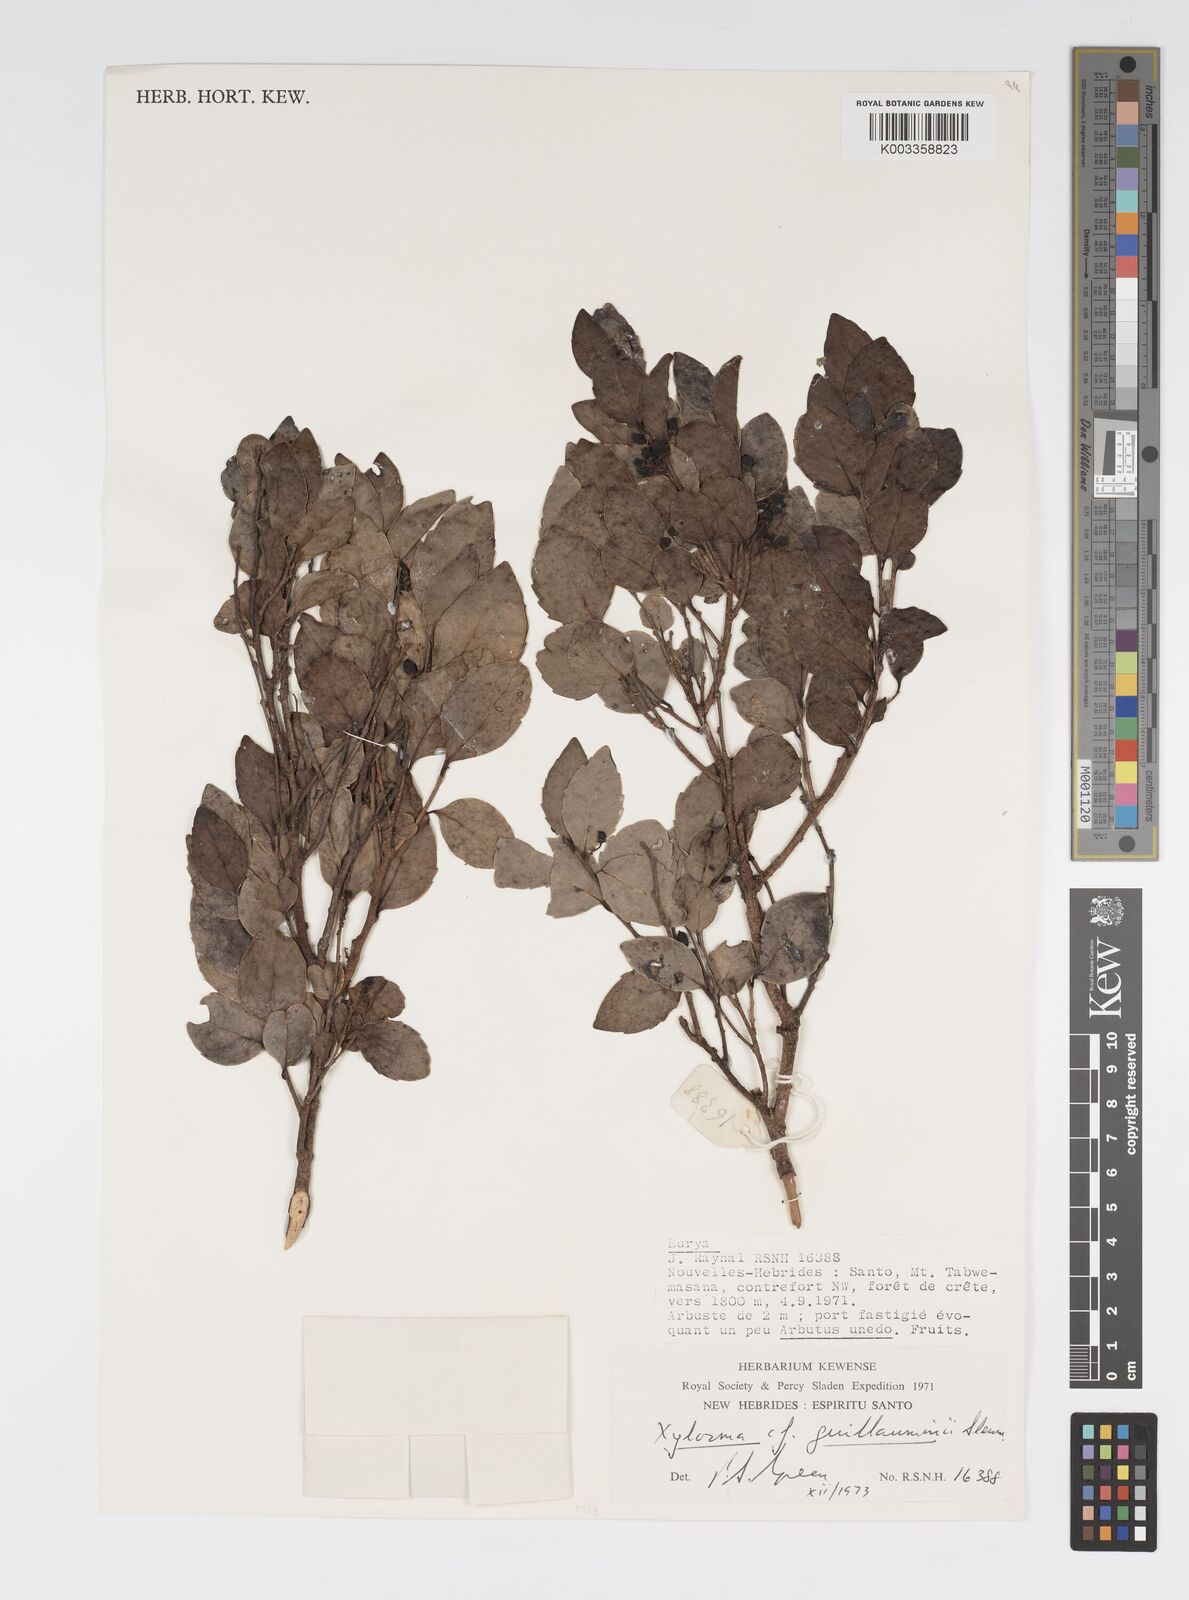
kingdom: Plantae
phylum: Tracheophyta
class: Magnoliopsida
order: Malpighiales
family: Salicaceae
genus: Xylosma
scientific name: Xylosma lifuana
